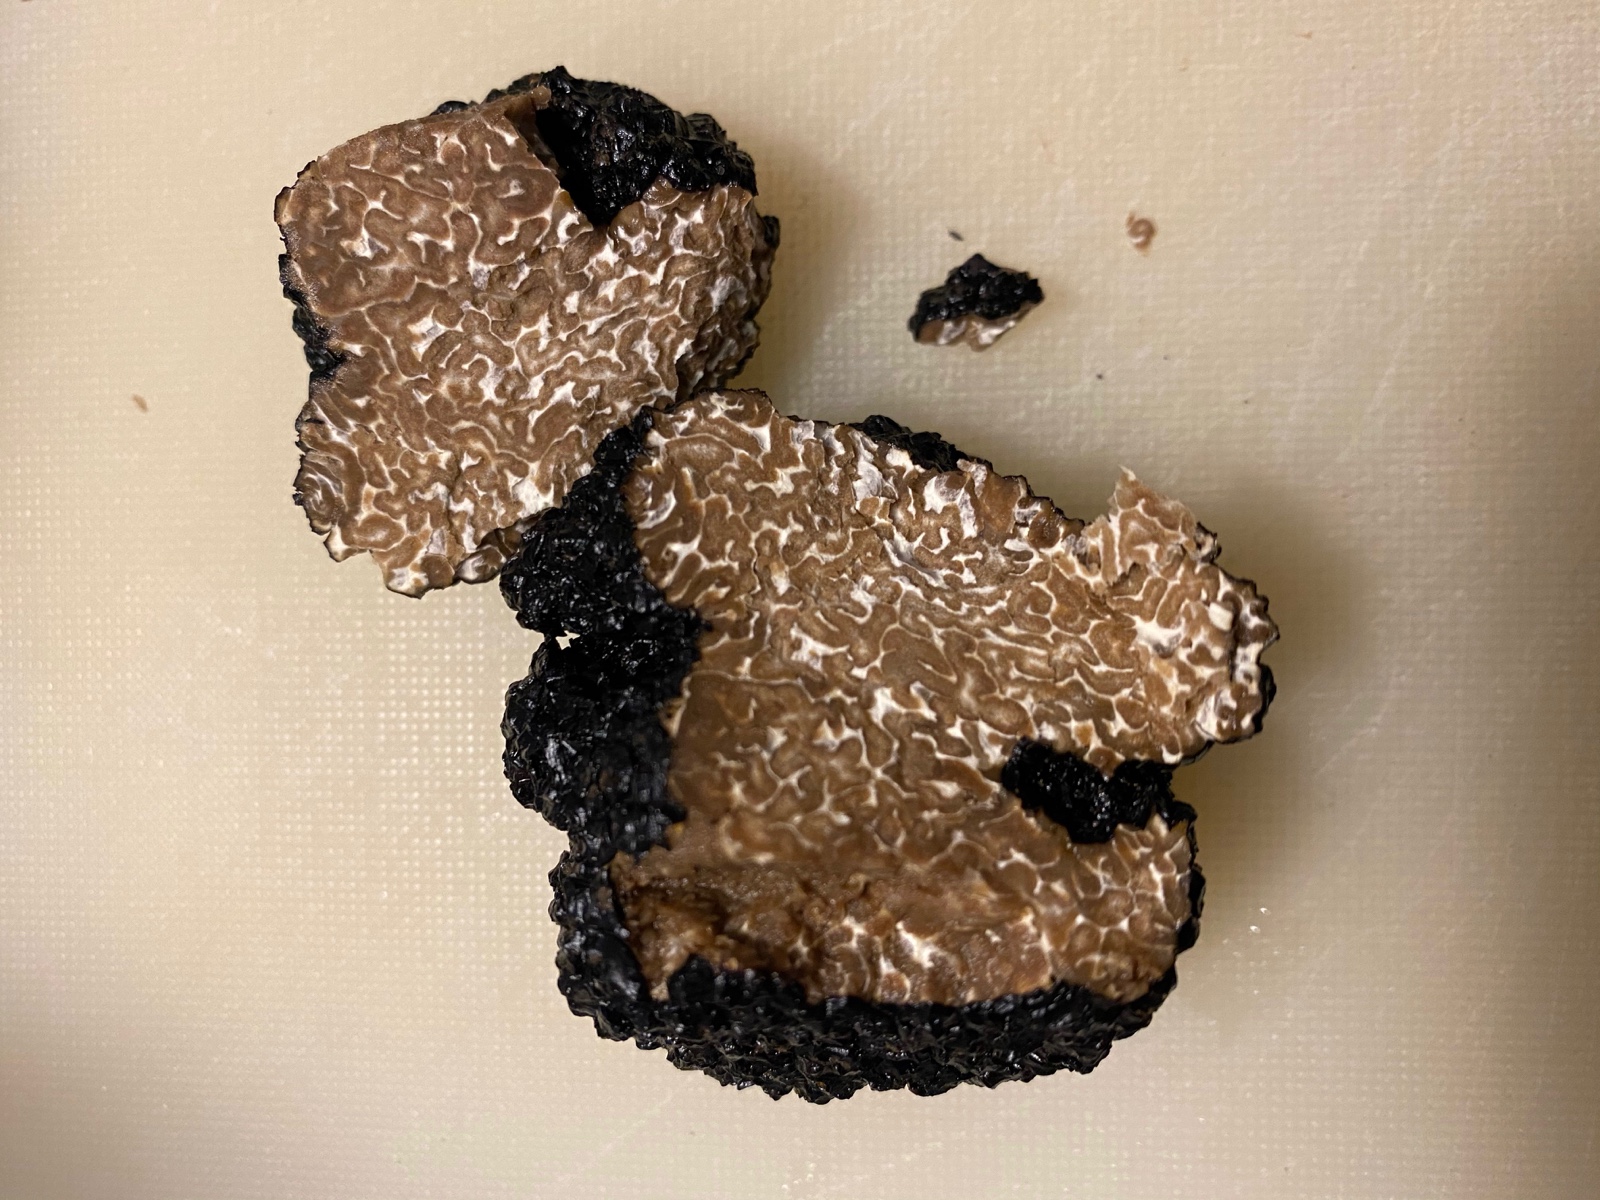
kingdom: Fungi
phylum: Ascomycota
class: Pezizomycetes
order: Pezizales
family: Tuberaceae
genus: Tuber
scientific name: Tuber aestivum
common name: sommer-trøffel
